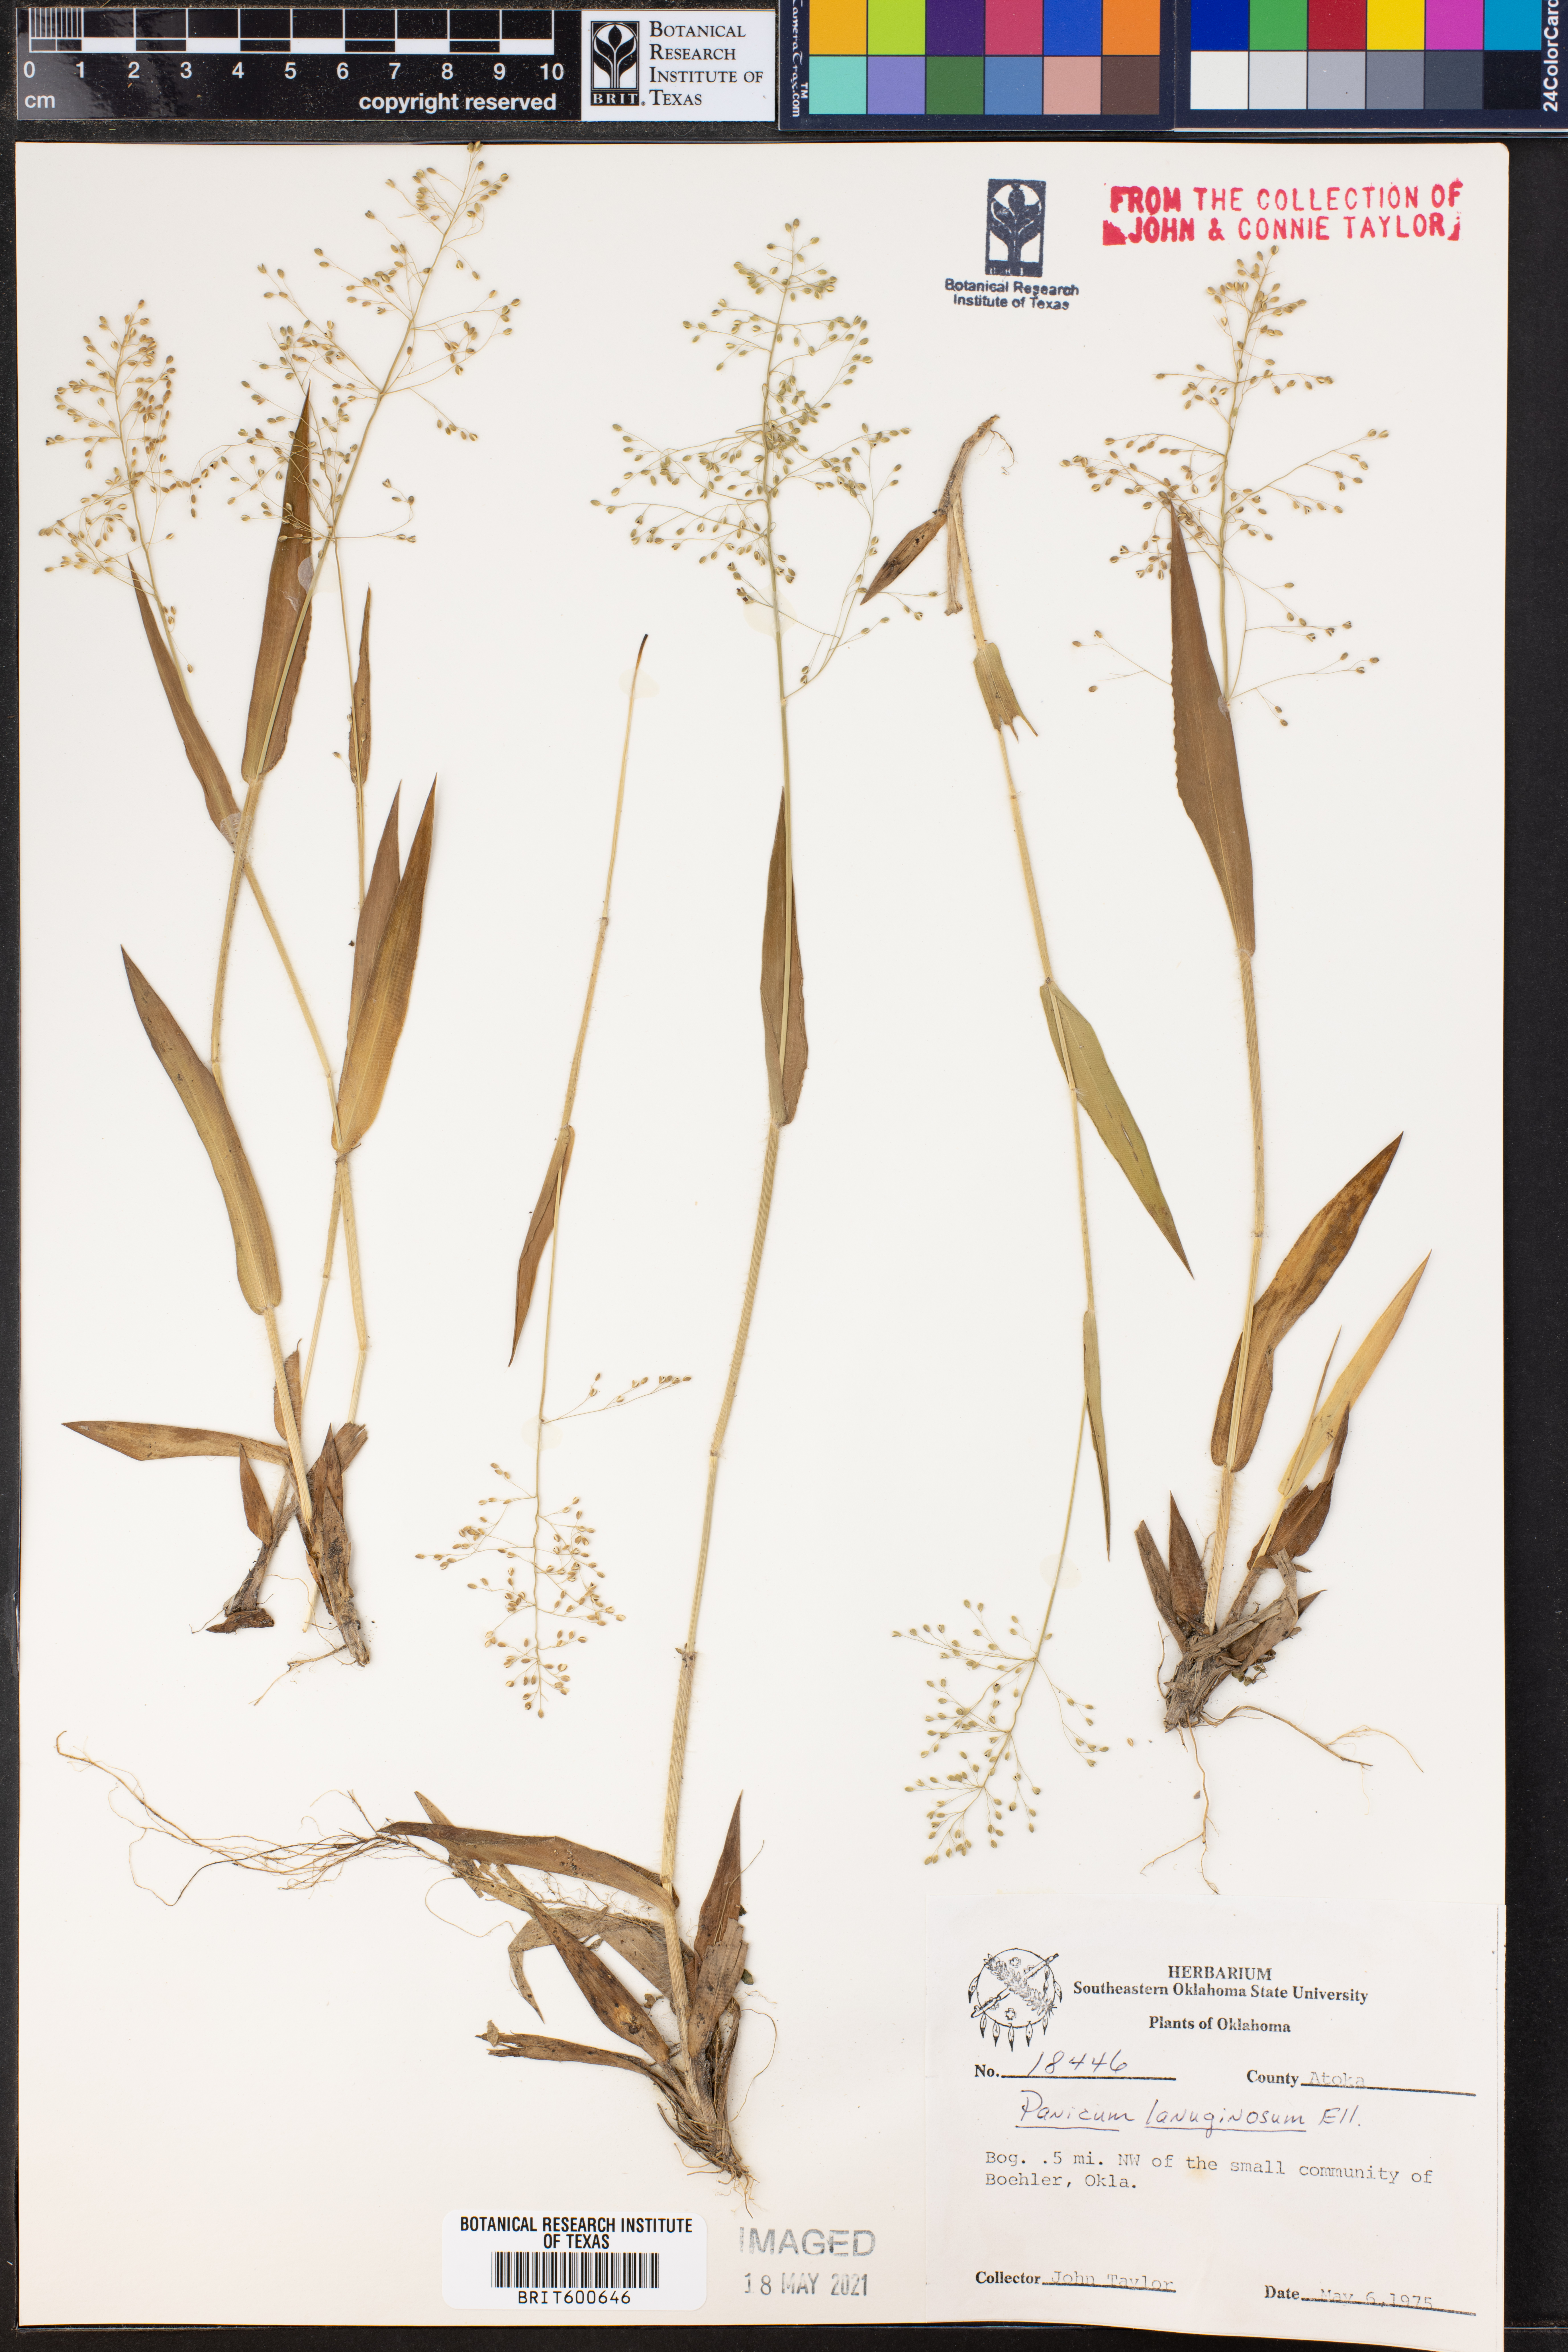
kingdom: Plantae
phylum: Tracheophyta
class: Liliopsida
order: Poales
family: Poaceae
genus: Dichanthelium
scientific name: Dichanthelium lanuginosum
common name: Woolly panicgrass
